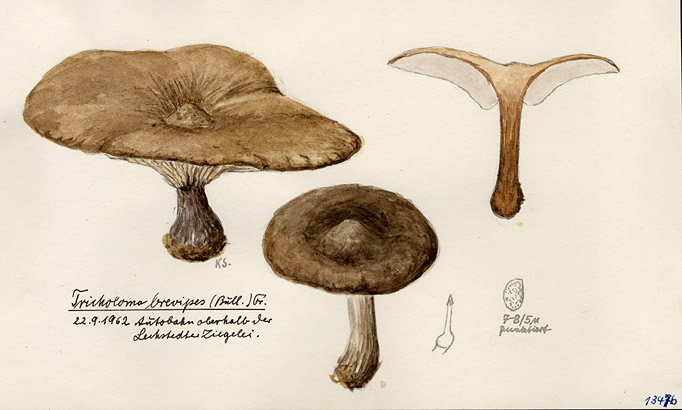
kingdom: Fungi
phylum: Basidiomycota
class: Agaricomycetes
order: Agaricales
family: Tricholomataceae
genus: Melanoleuca
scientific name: Melanoleuca brevipes
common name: Stunted cavalier
